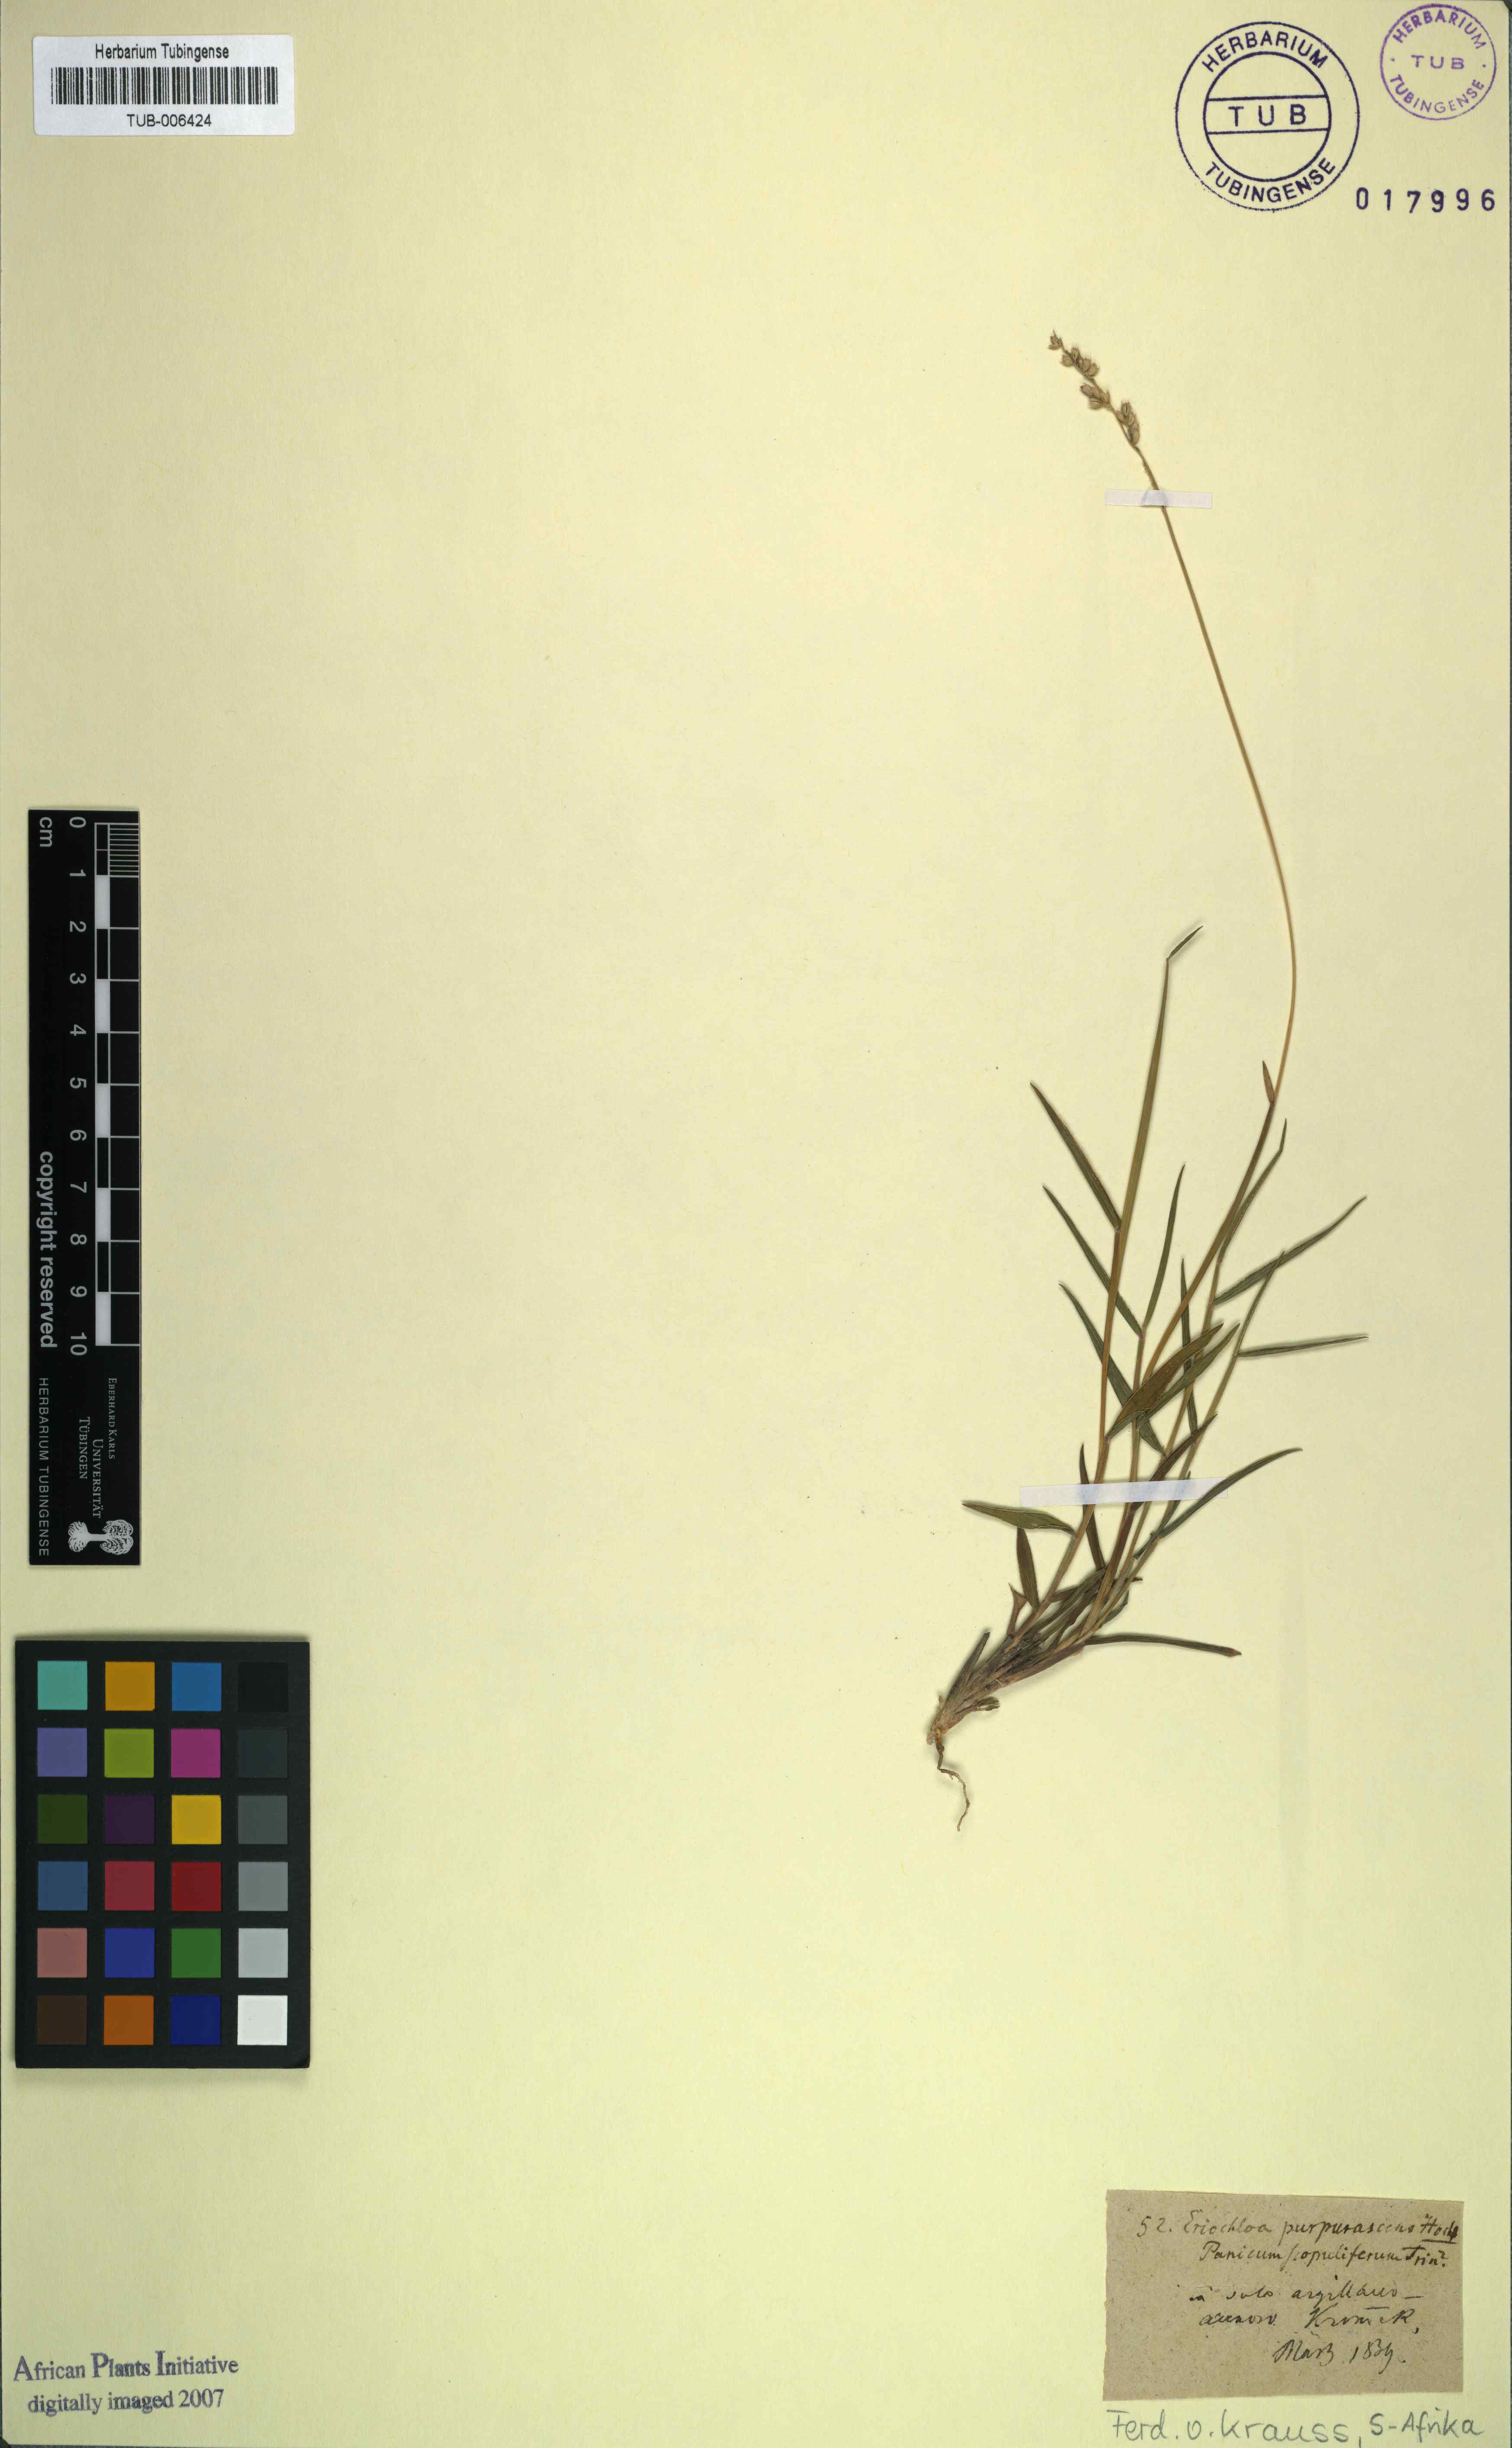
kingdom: Plantae
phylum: Tracheophyta
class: Liliopsida
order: Poales
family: Poaceae
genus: Urochloa
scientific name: Urochloa serrata
